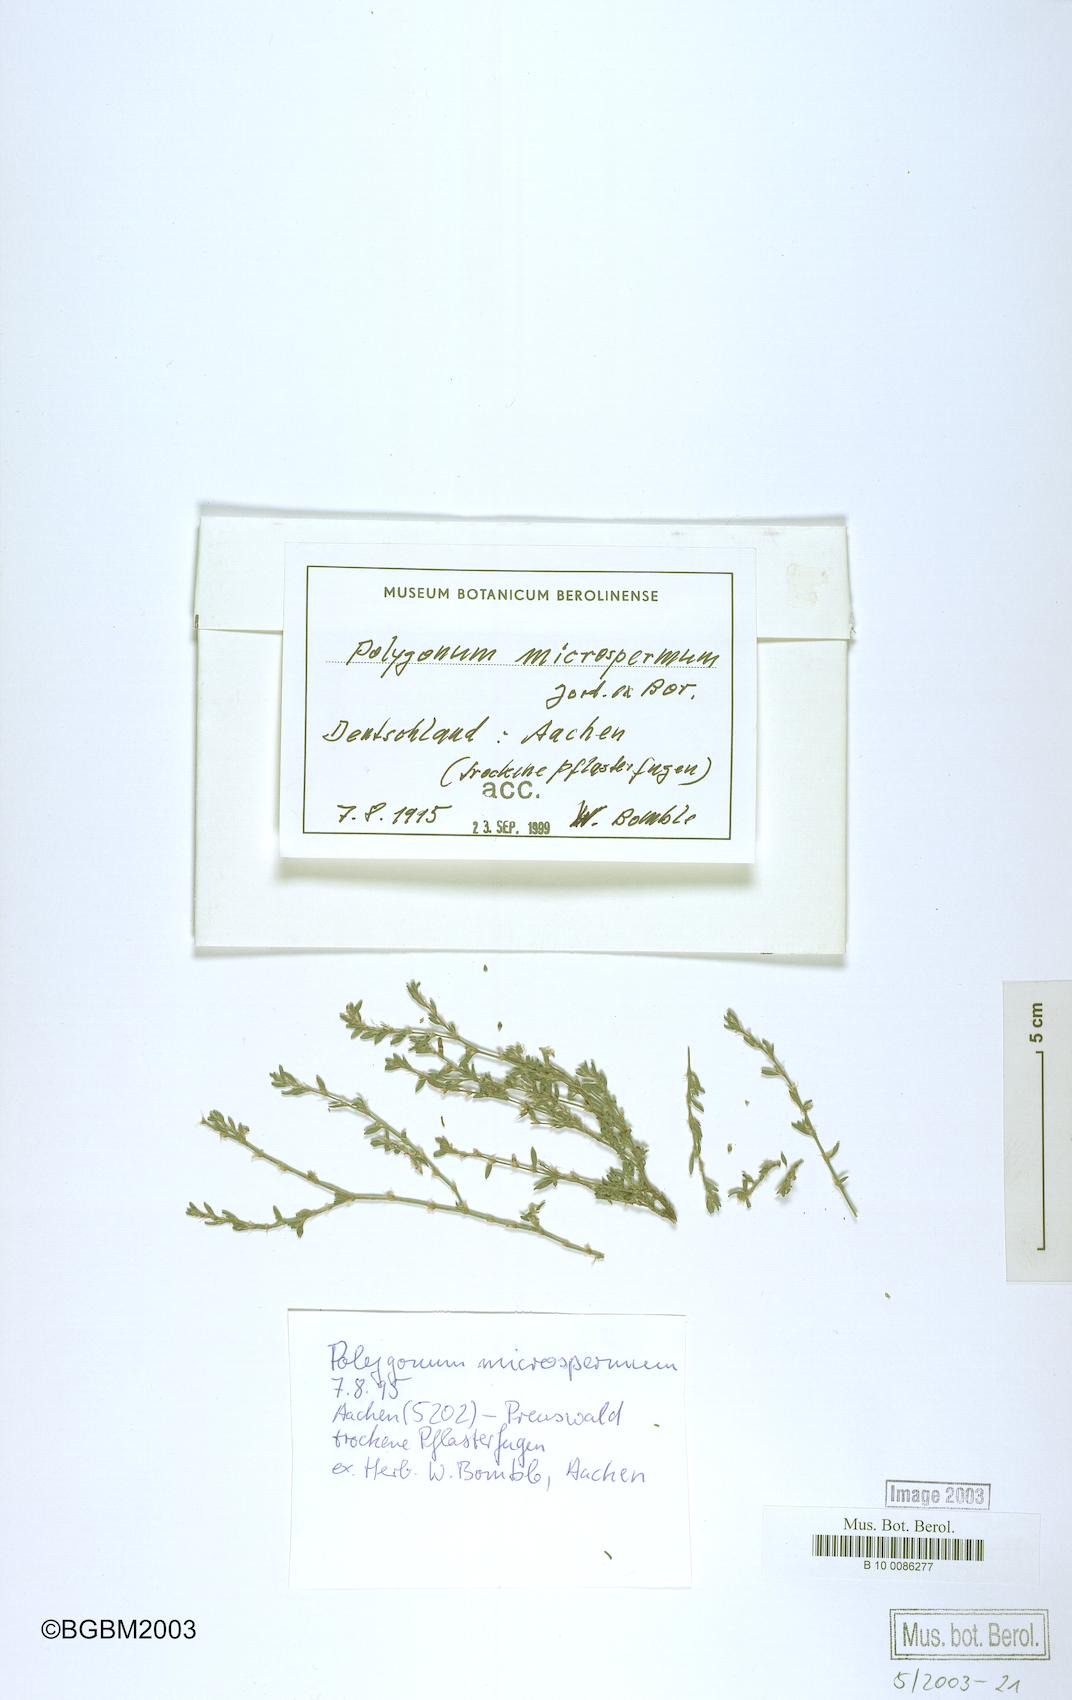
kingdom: Plantae
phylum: Tracheophyta
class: Magnoliopsida
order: Caryophyllales
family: Polygonaceae
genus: Polygonum
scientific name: Polygonum
